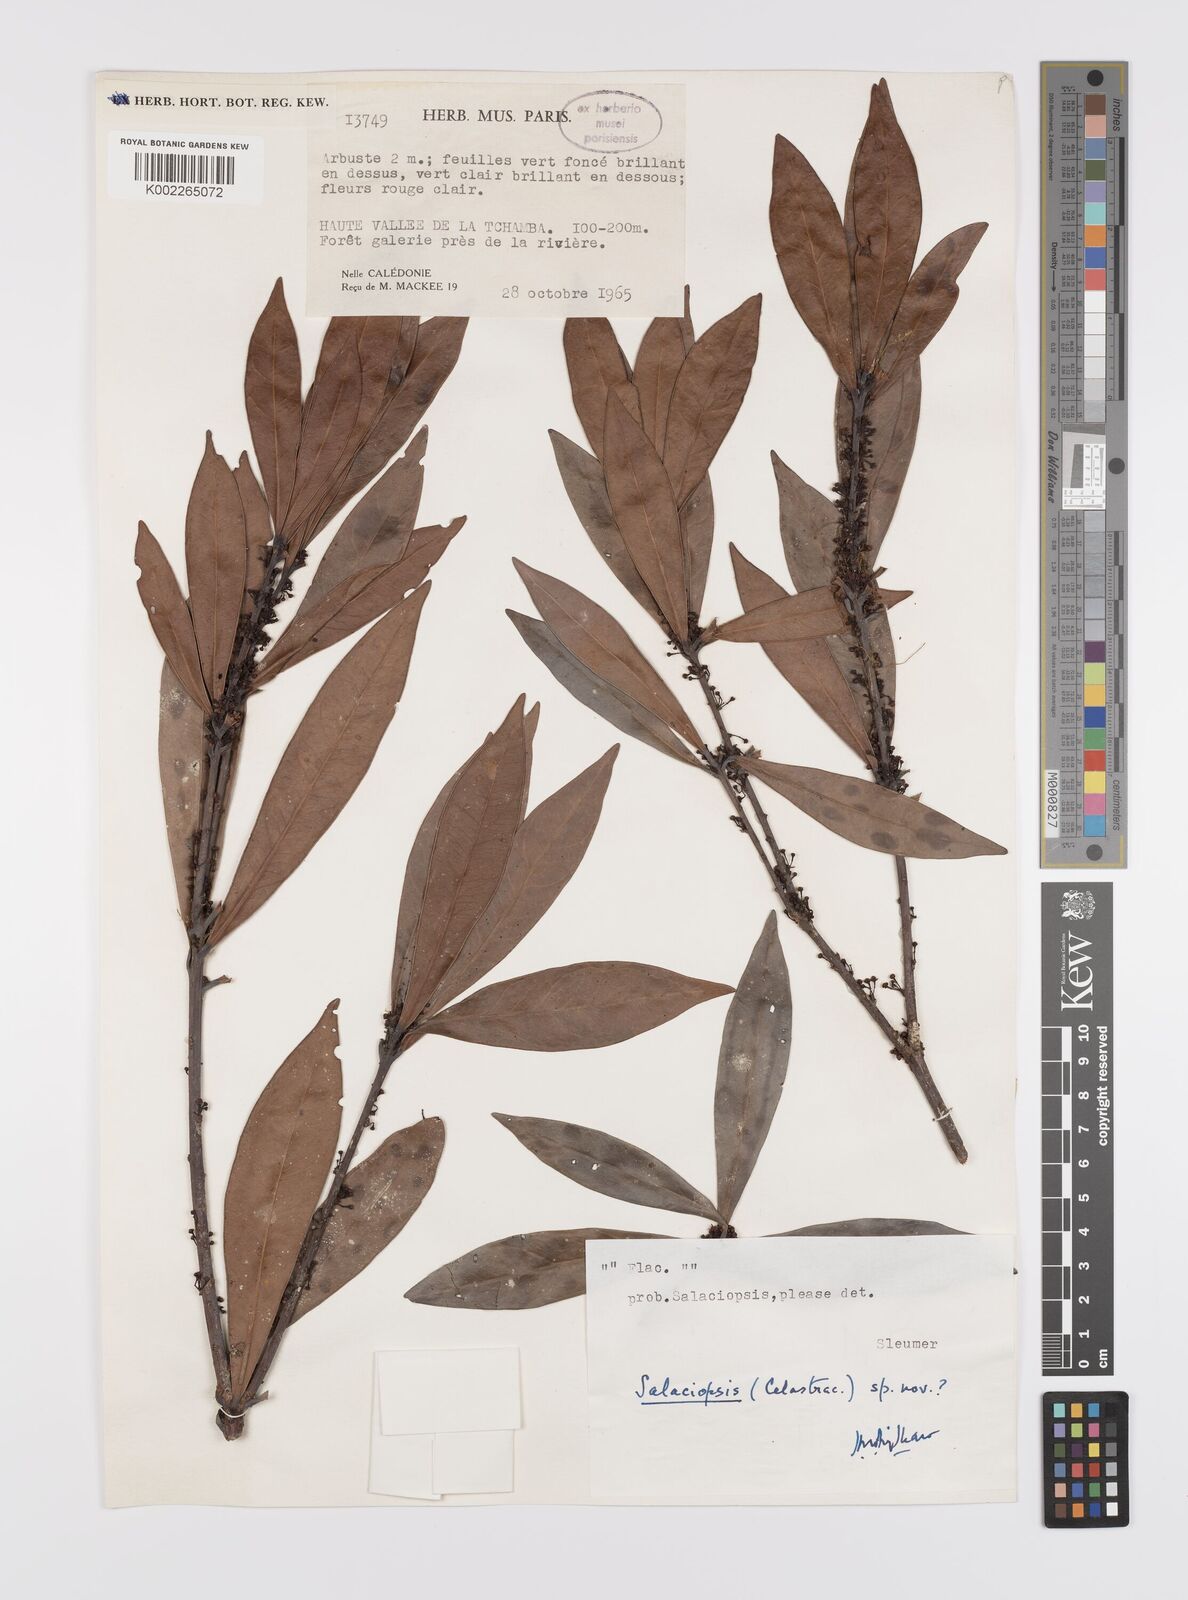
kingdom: Plantae
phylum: Tracheophyta
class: Magnoliopsida
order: Celastrales
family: Celastraceae
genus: Salaciopsis
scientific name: Salaciopsis
